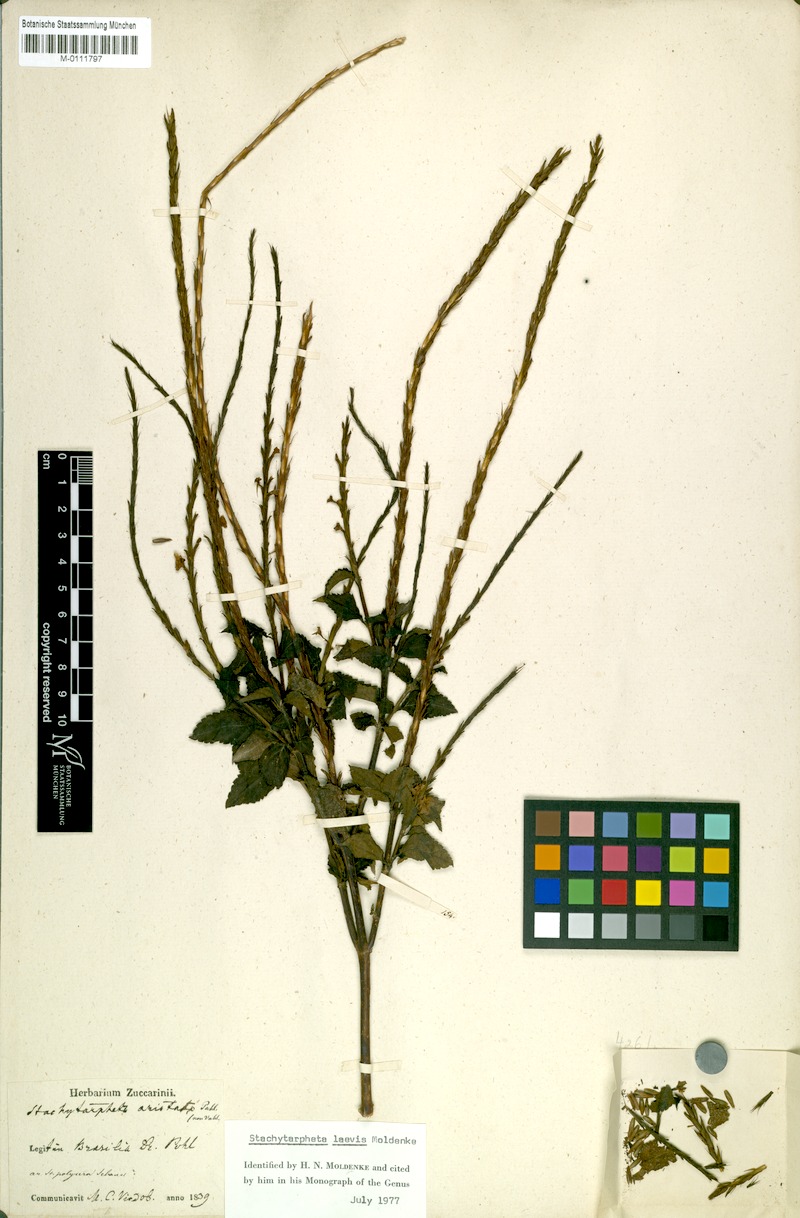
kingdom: Plantae
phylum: Tracheophyta
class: Magnoliopsida
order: Lamiales
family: Verbenaceae
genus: Stachytarpheta
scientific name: Stachytarpheta orubica
